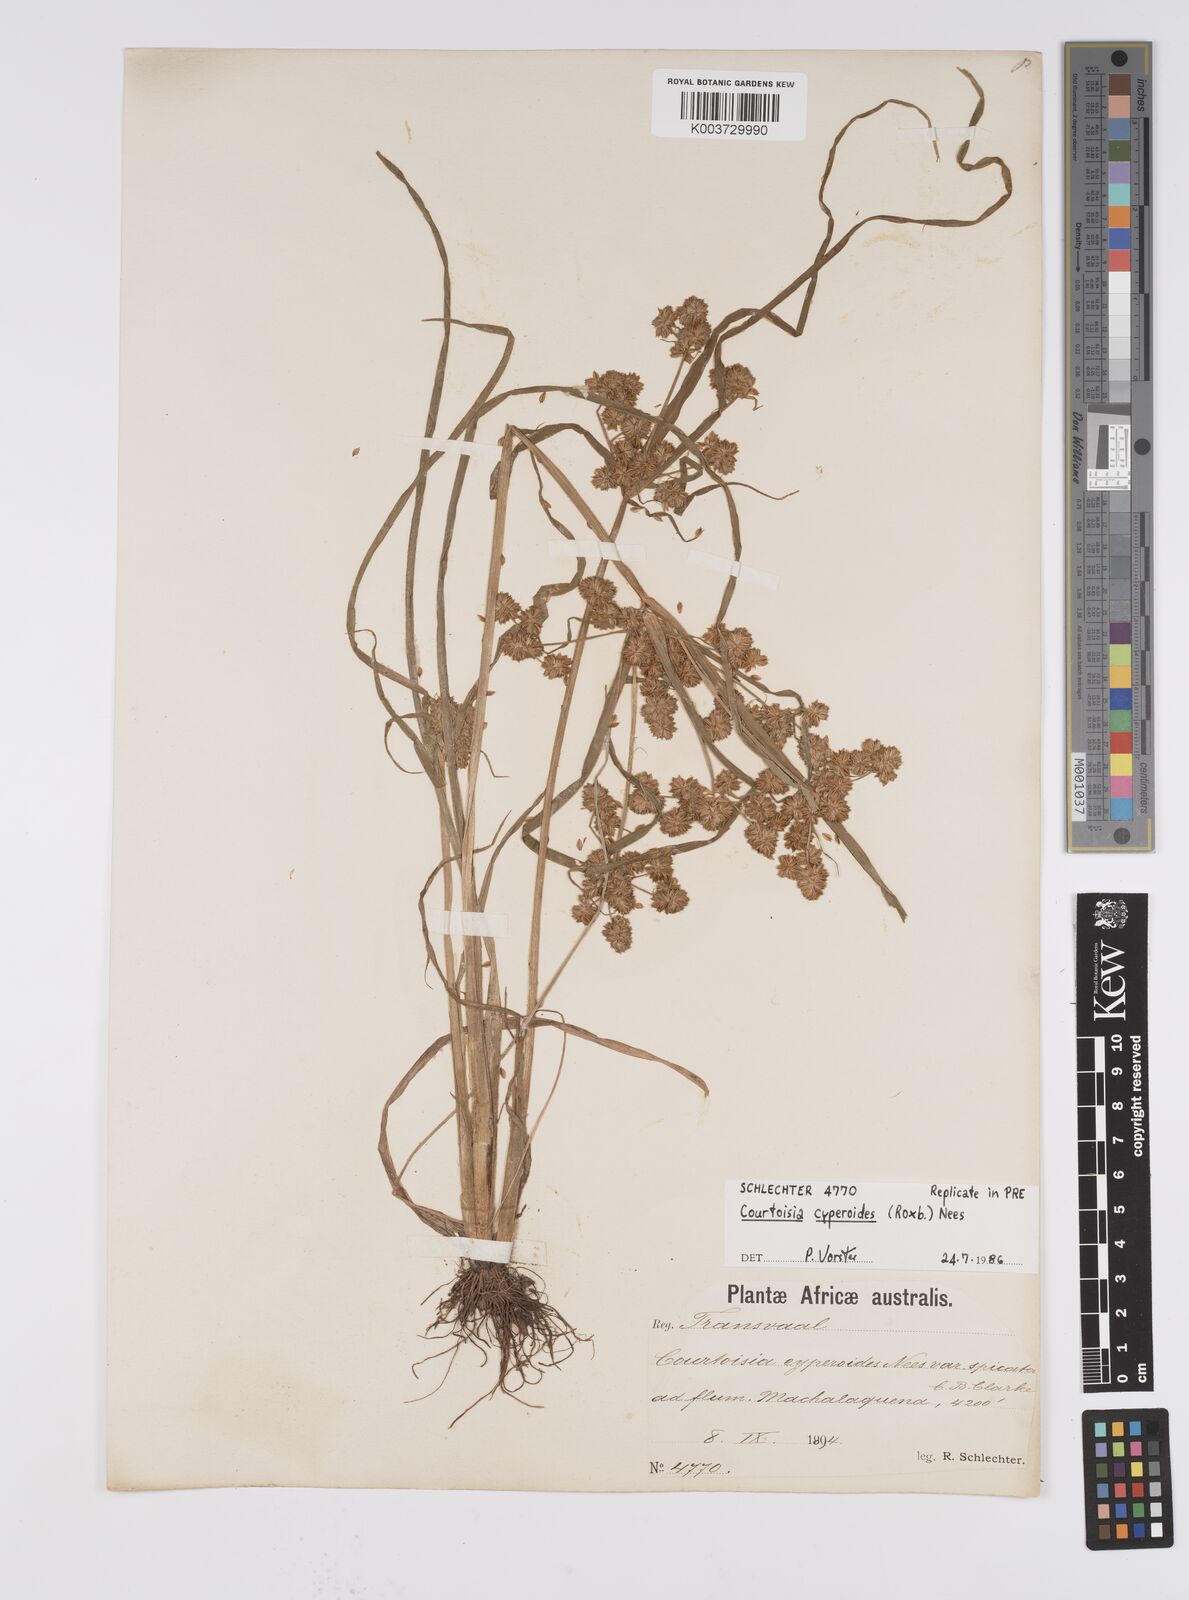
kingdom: Plantae
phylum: Tracheophyta
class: Liliopsida
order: Poales
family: Cyperaceae
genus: Cyperus
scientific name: Cyperus cyperoides
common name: Pacific island flat sedge
